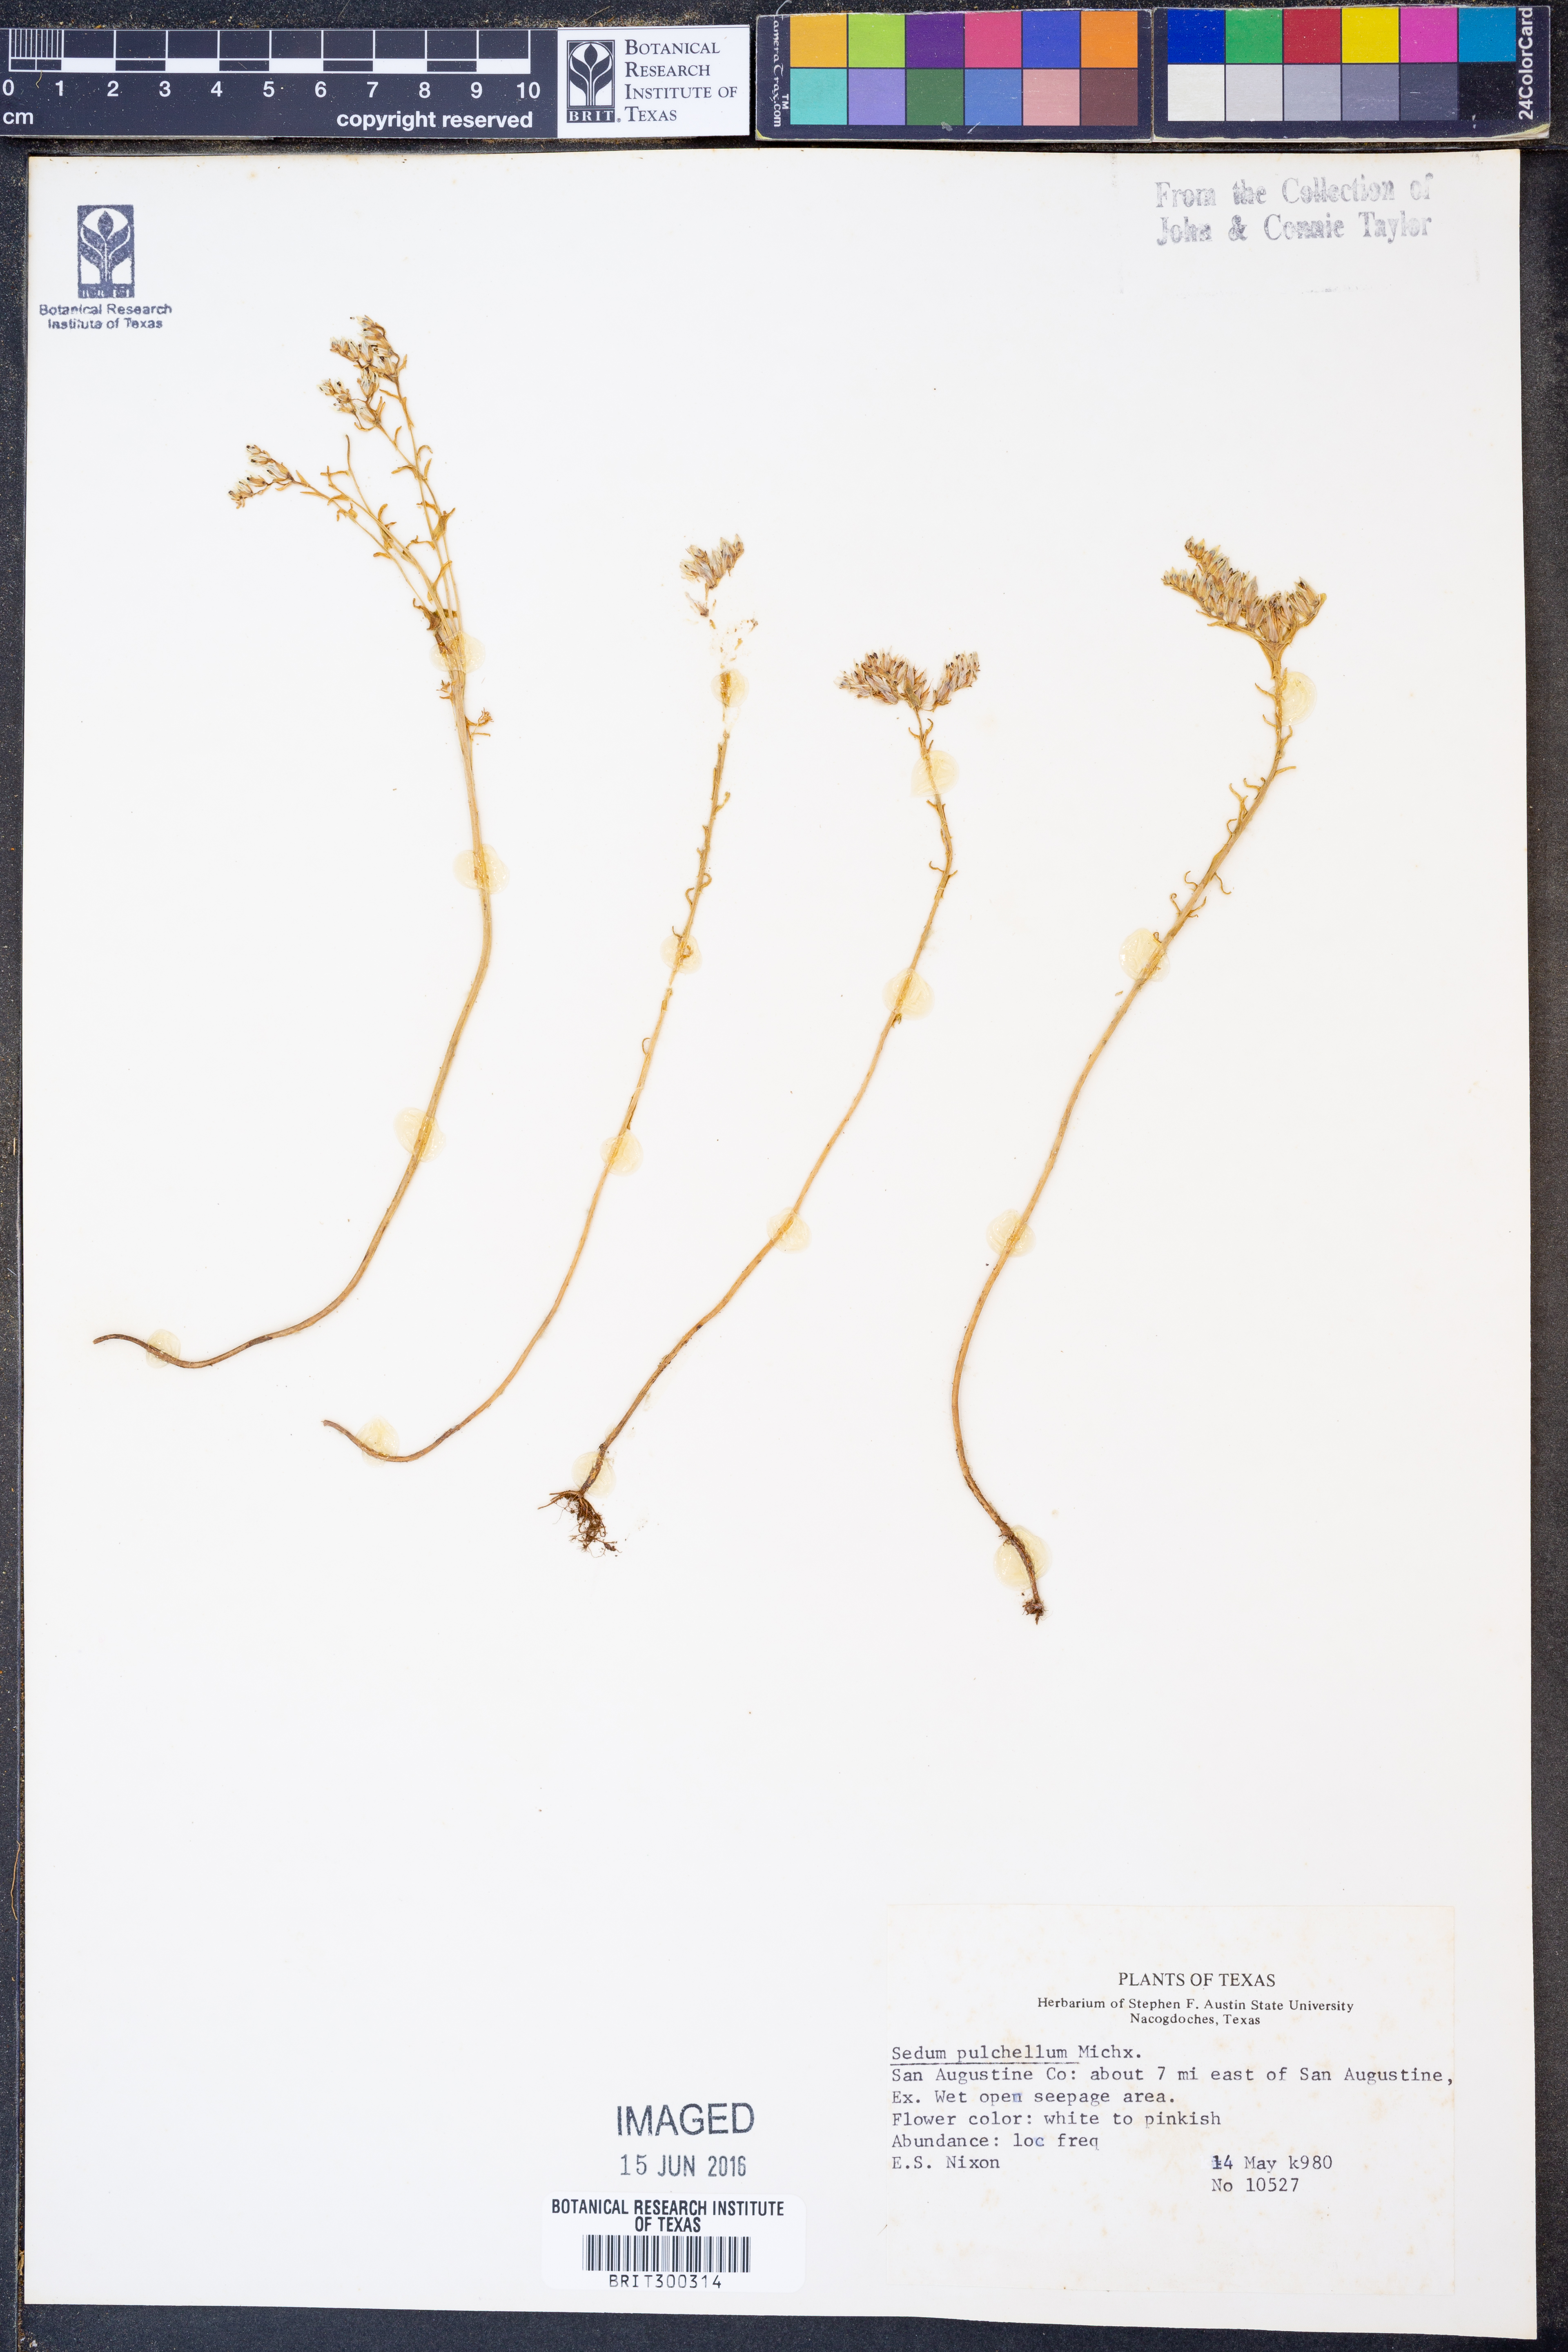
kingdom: Plantae
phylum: Tracheophyta
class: Magnoliopsida
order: Saxifragales
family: Crassulaceae
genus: Sedum
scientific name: Sedum pulchellum
